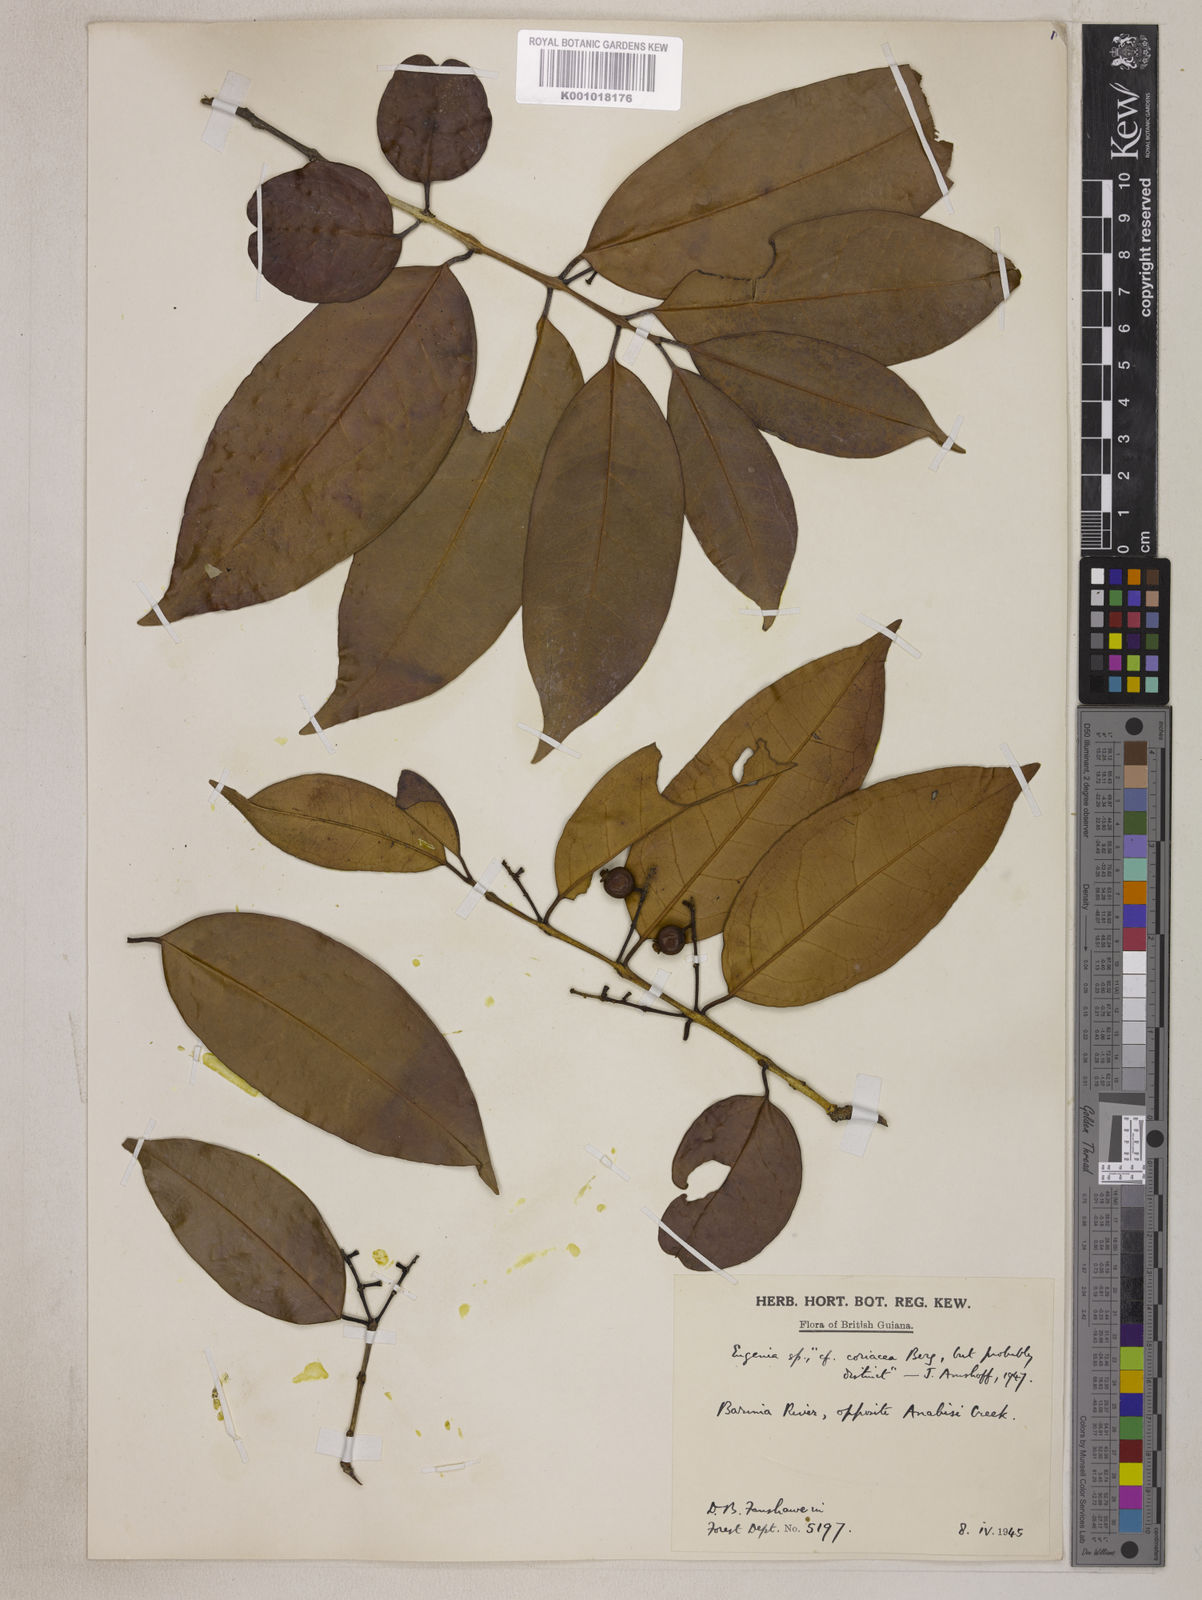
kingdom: Plantae
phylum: Tracheophyta
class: Magnoliopsida
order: Myrtales
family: Myrtaceae
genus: Eugenia
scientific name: Eugenia florida
